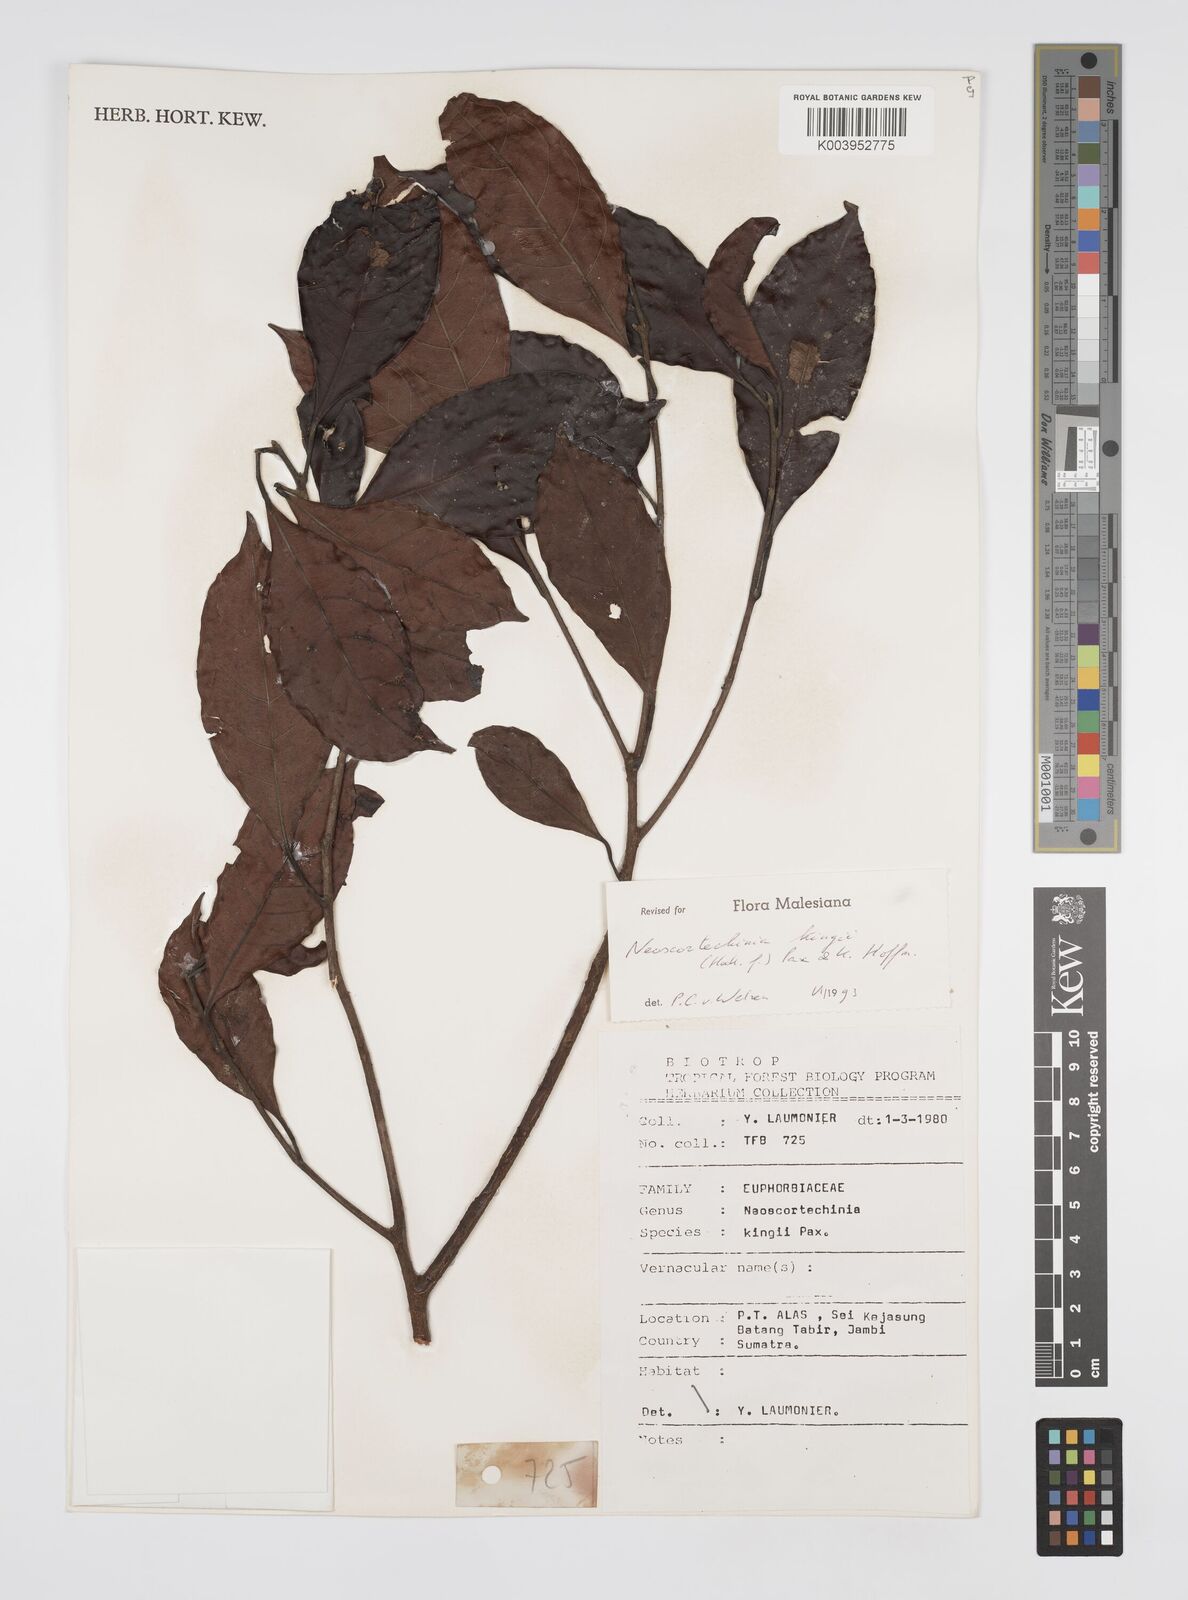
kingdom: Plantae
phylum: Tracheophyta
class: Magnoliopsida
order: Malpighiales
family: Euphorbiaceae
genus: Neoscortechinia
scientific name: Neoscortechinia kingii
